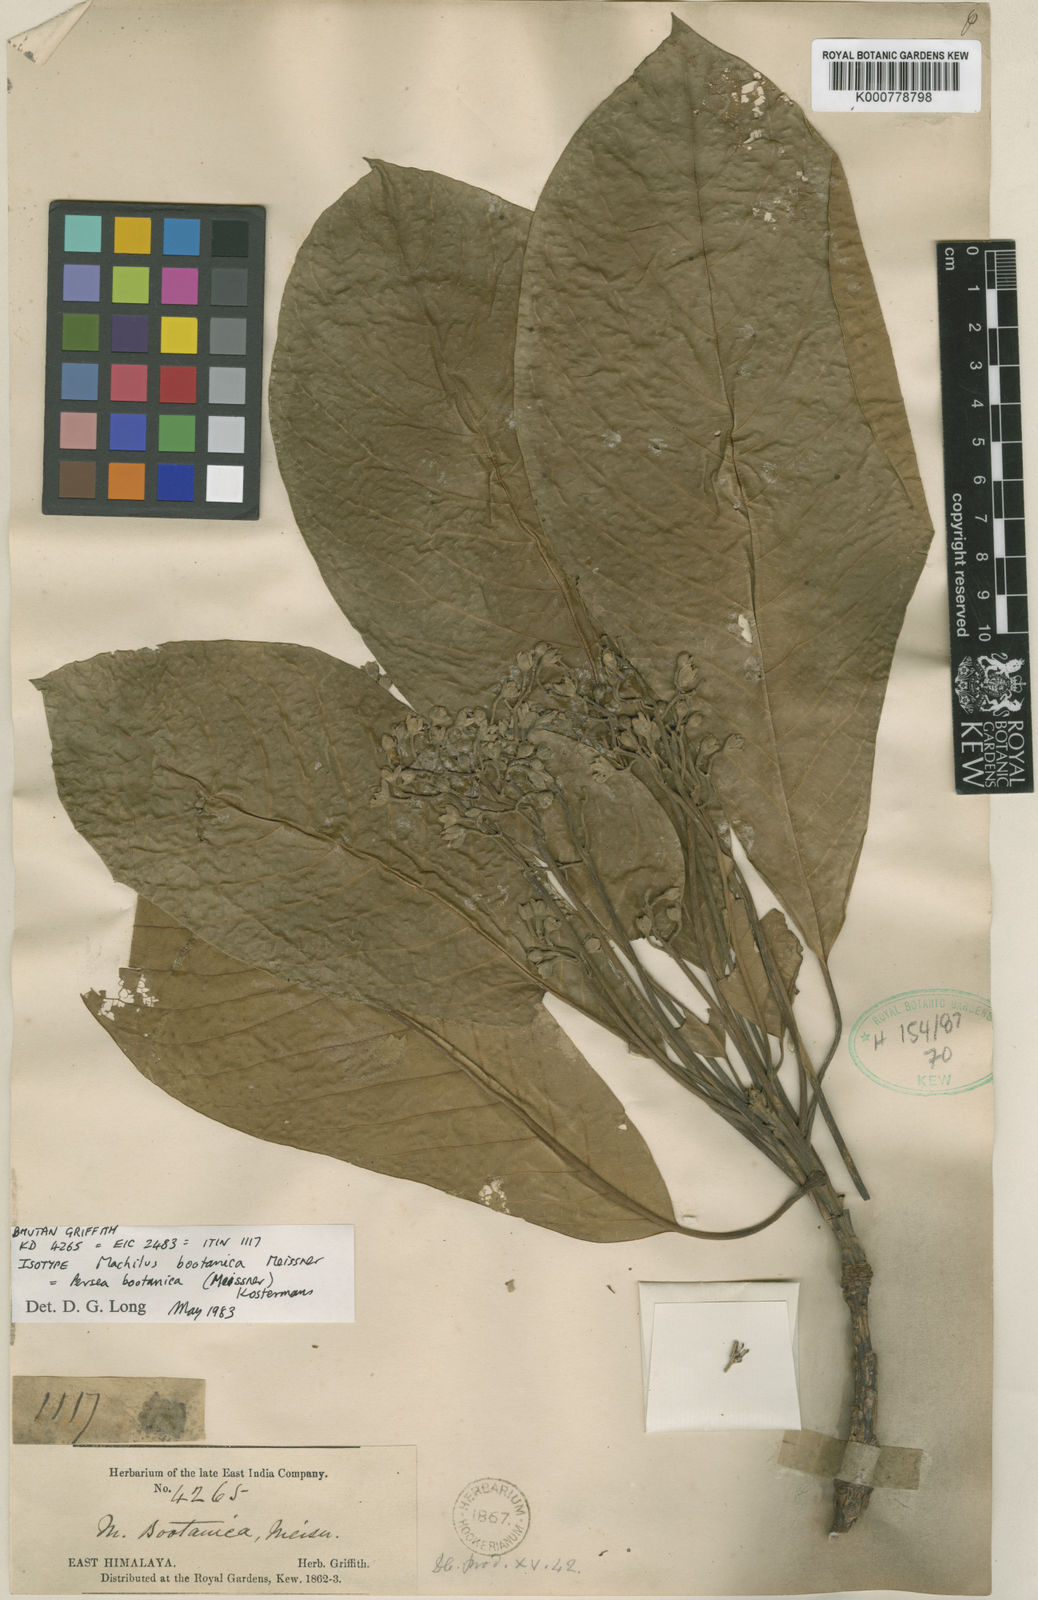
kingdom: Plantae
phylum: Tracheophyta
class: Magnoliopsida
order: Laurales
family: Lauraceae
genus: Phoebe
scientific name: Phoebe bootanica
